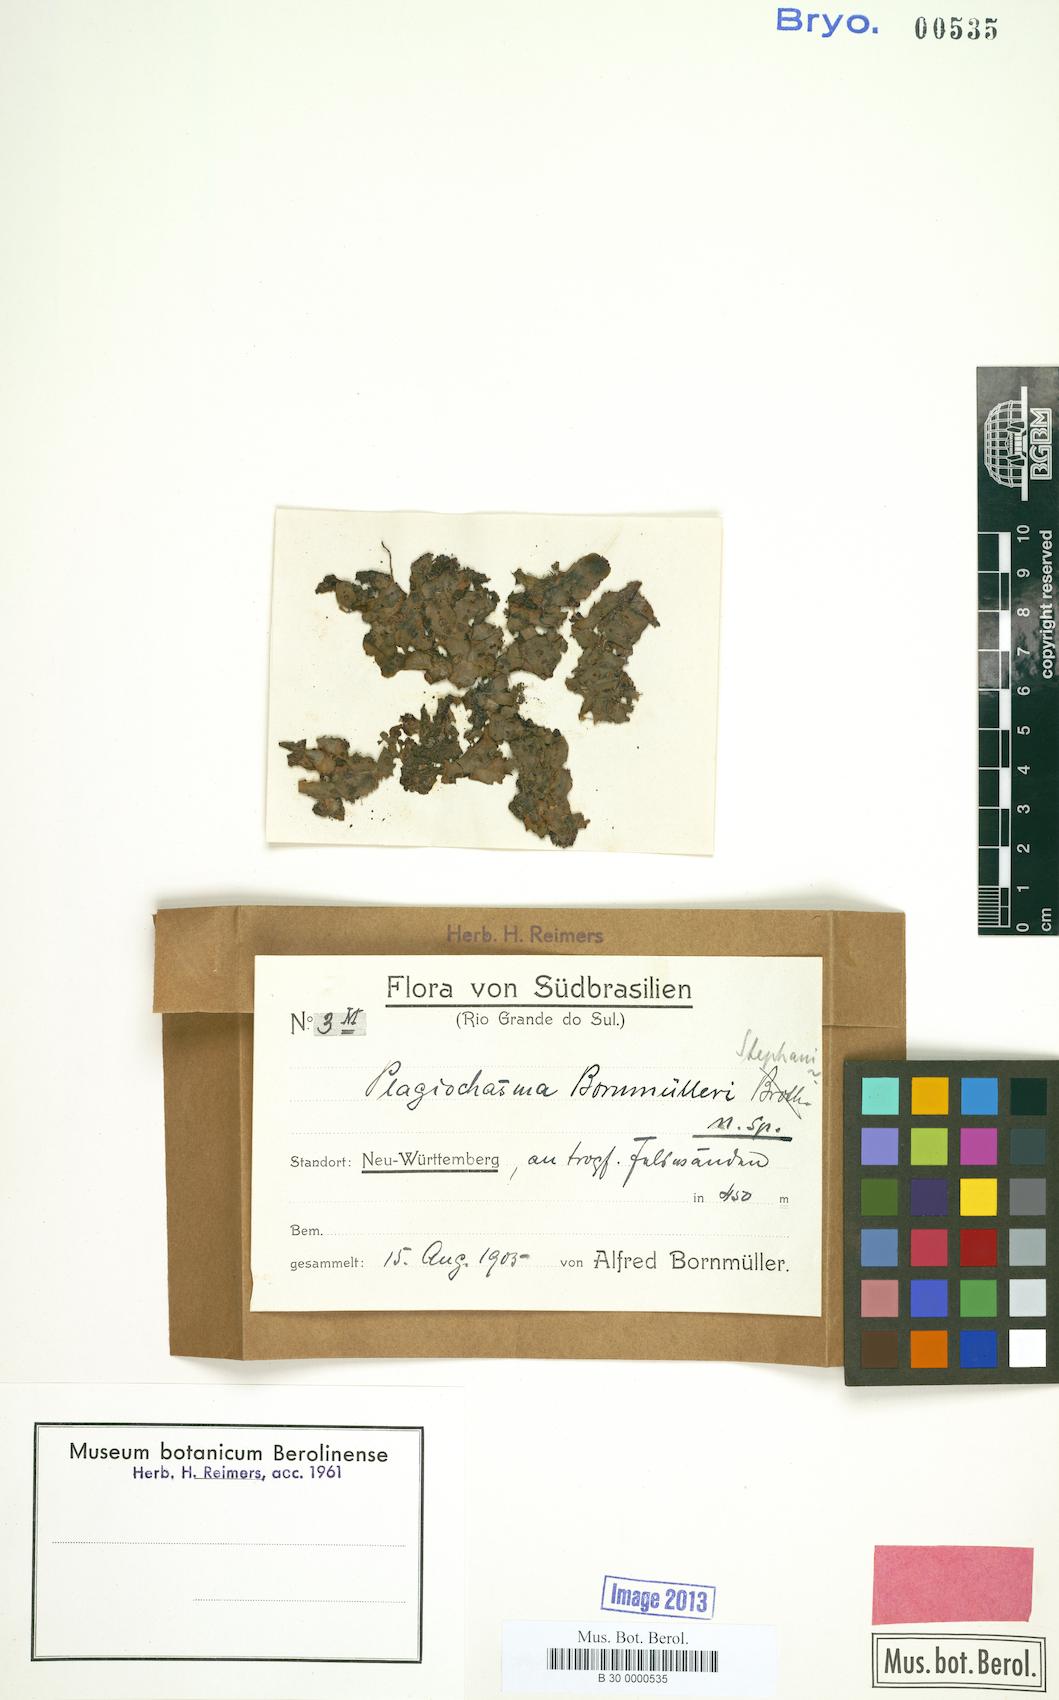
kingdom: Plantae
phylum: Marchantiophyta
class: Marchantiopsida
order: Marchantiales
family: Aytoniaceae
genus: Plagiochasma
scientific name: Plagiochasma rupestre
